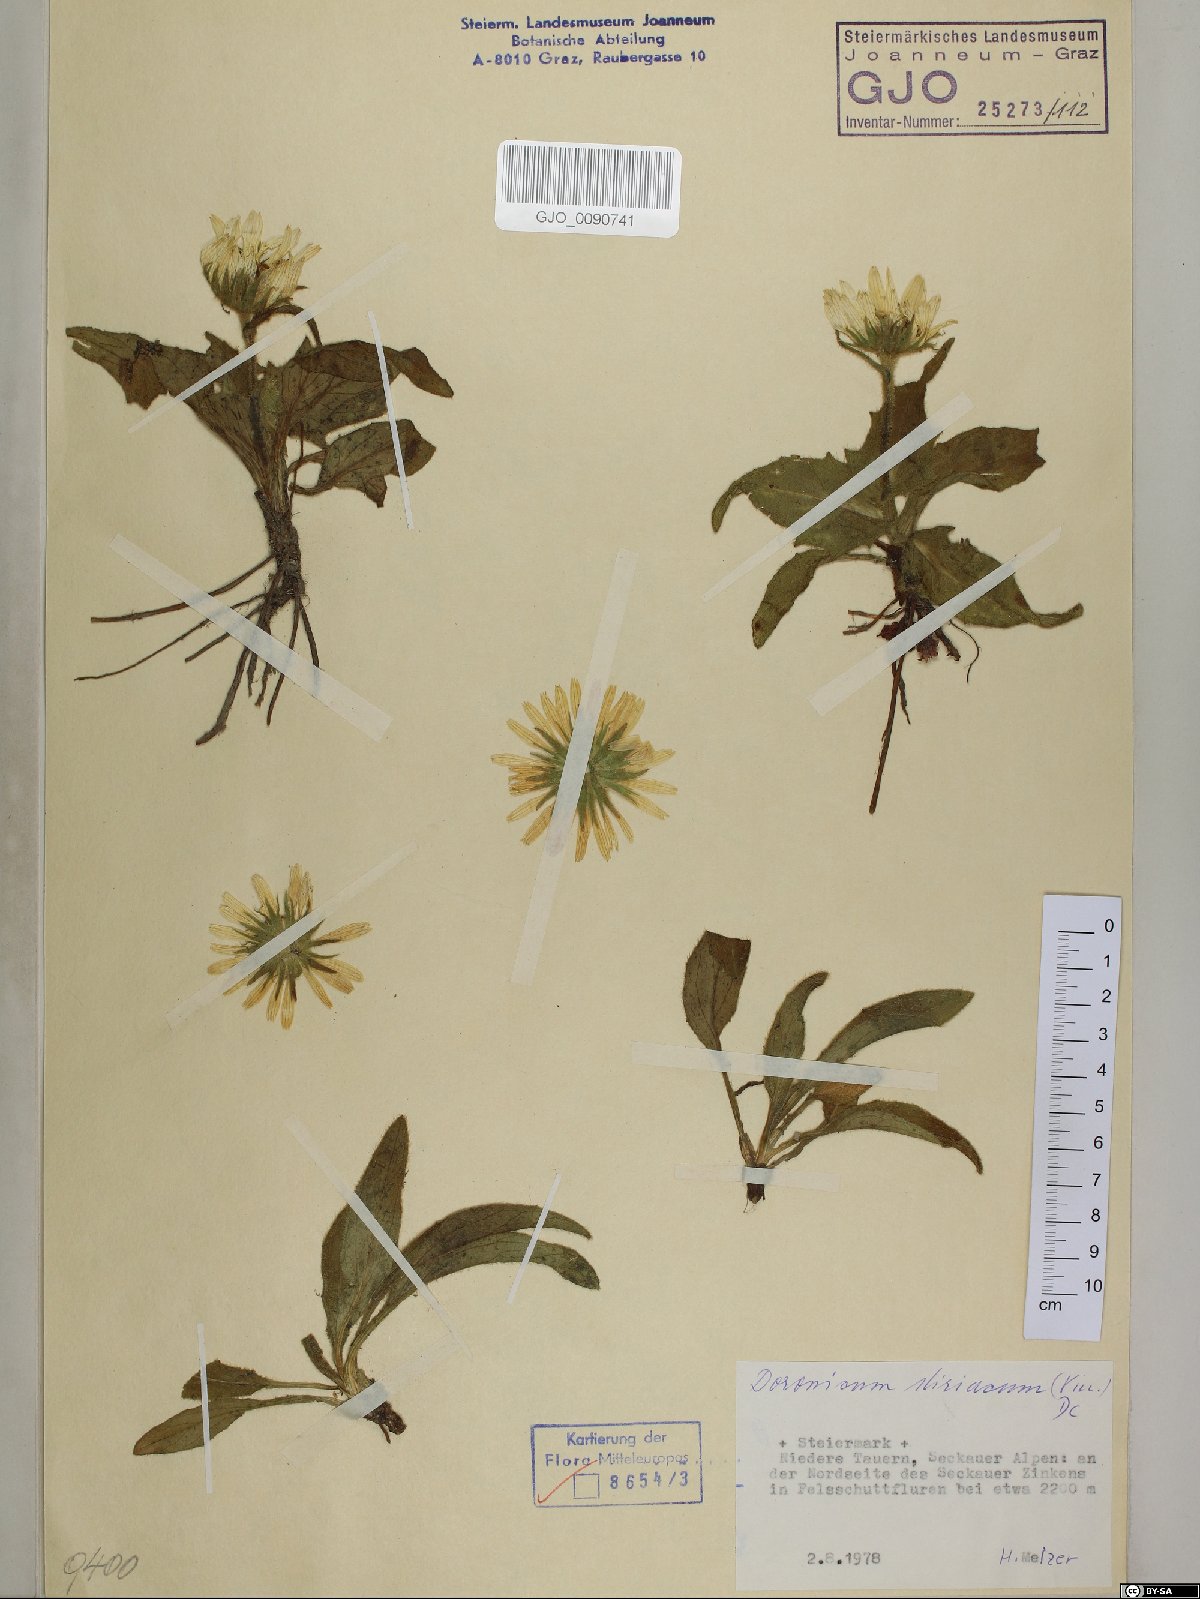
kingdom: Plantae
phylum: Tracheophyta
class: Magnoliopsida
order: Asterales
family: Asteraceae
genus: Doronicum
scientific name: Doronicum clusii
